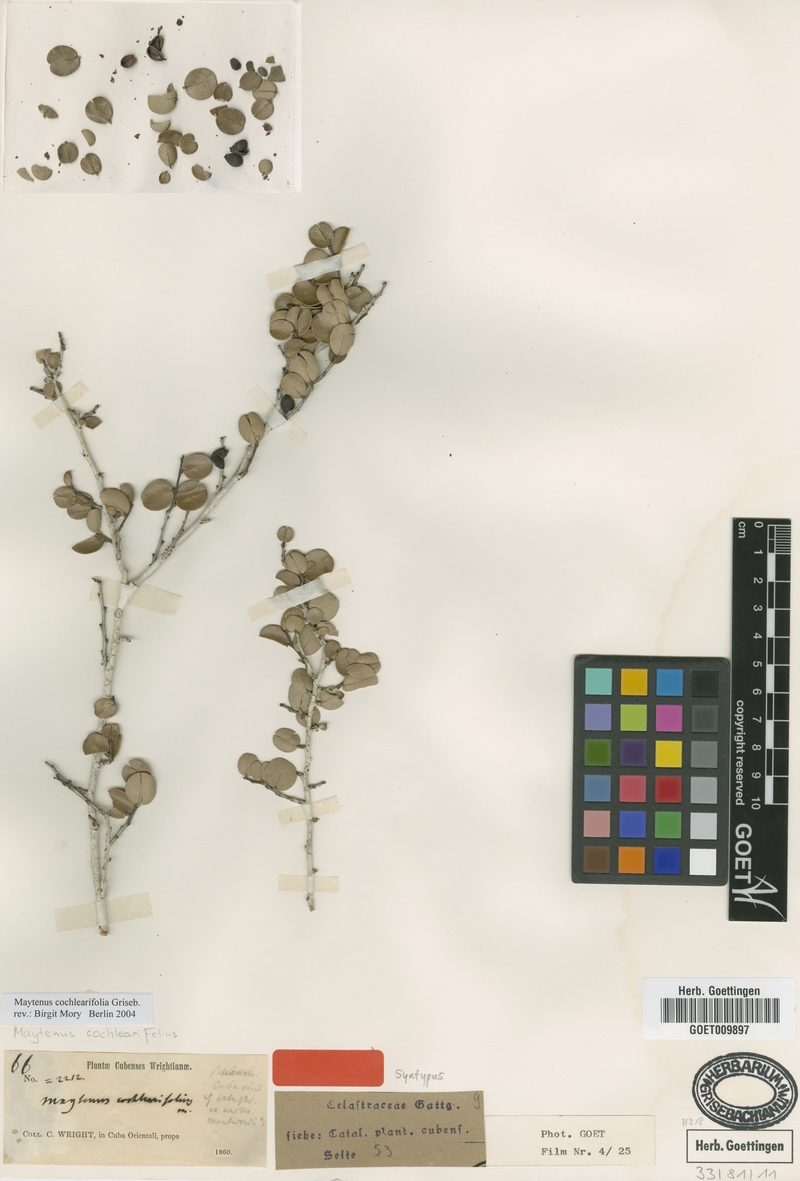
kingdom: Plantae
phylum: Tracheophyta
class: Magnoliopsida
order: Celastrales
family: Celastraceae
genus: Monteverdia
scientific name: Monteverdia buxifolia
